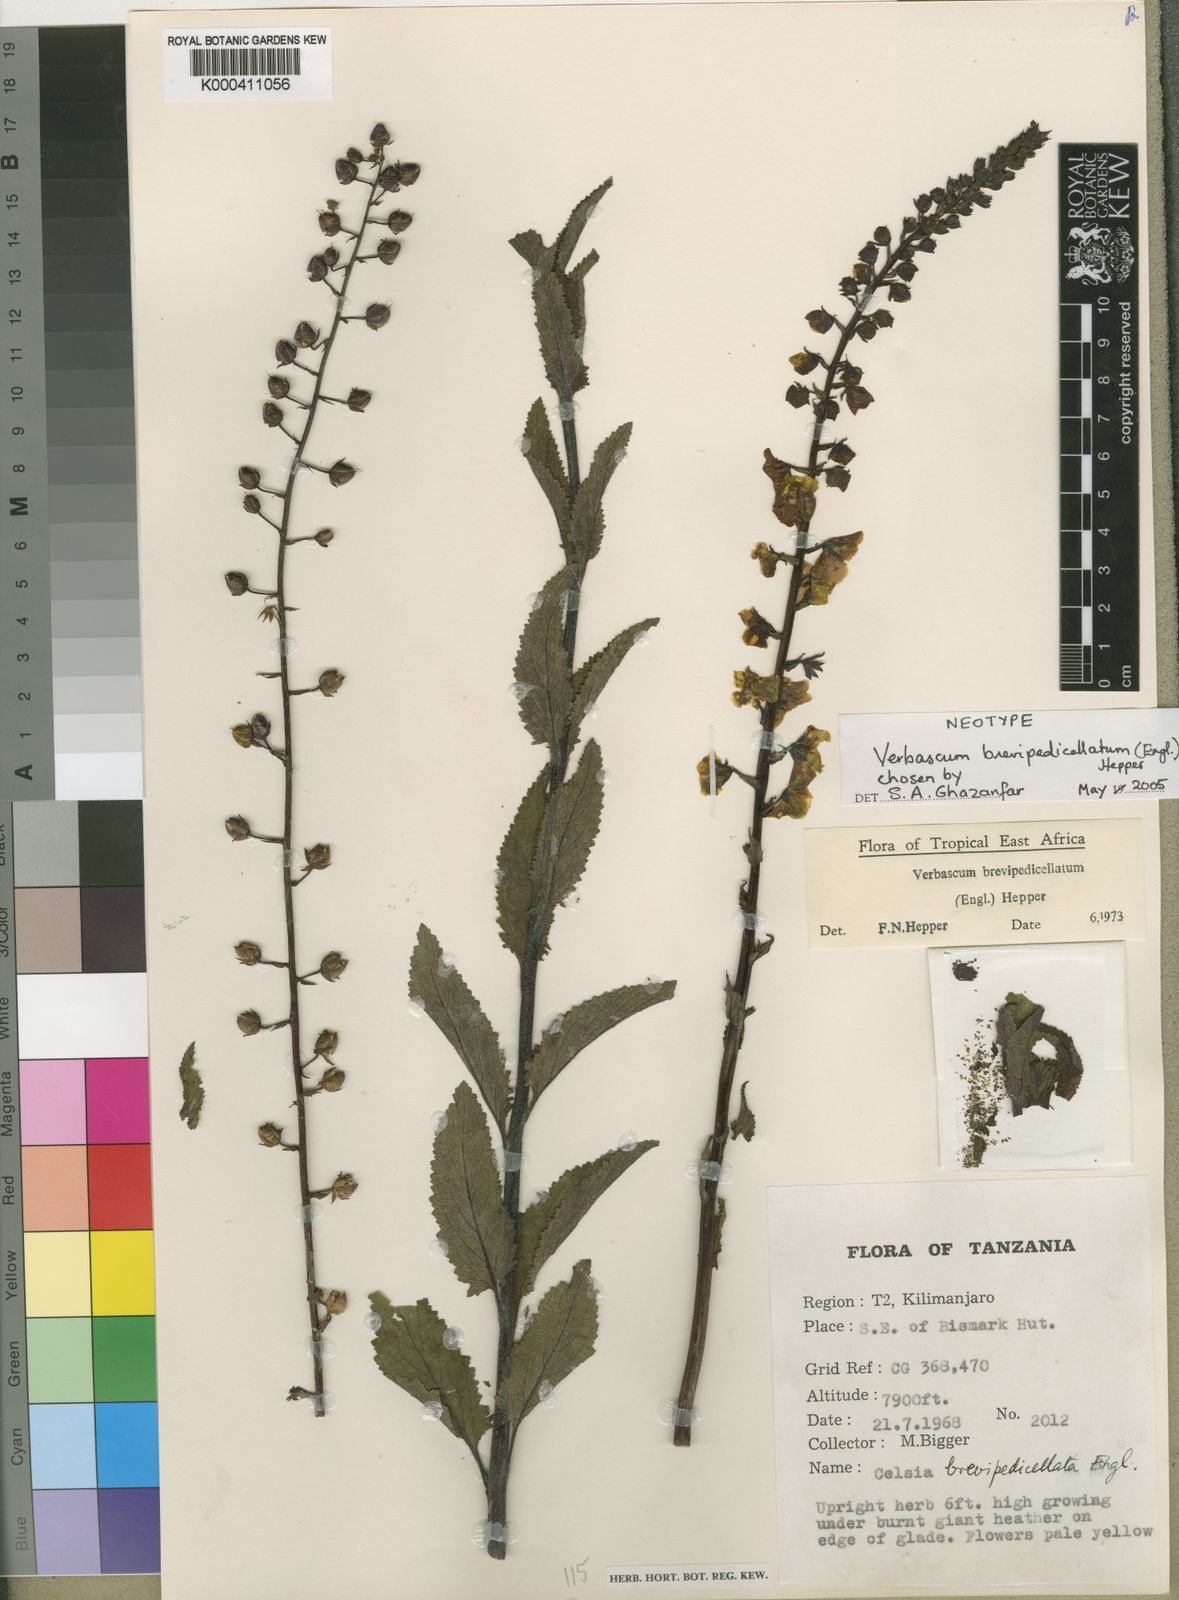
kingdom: Plantae
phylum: Tracheophyta
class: Magnoliopsida
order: Lamiales
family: Scrophulariaceae
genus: Rhabdotosperma
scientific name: Rhabdotosperma brevipedicellata
